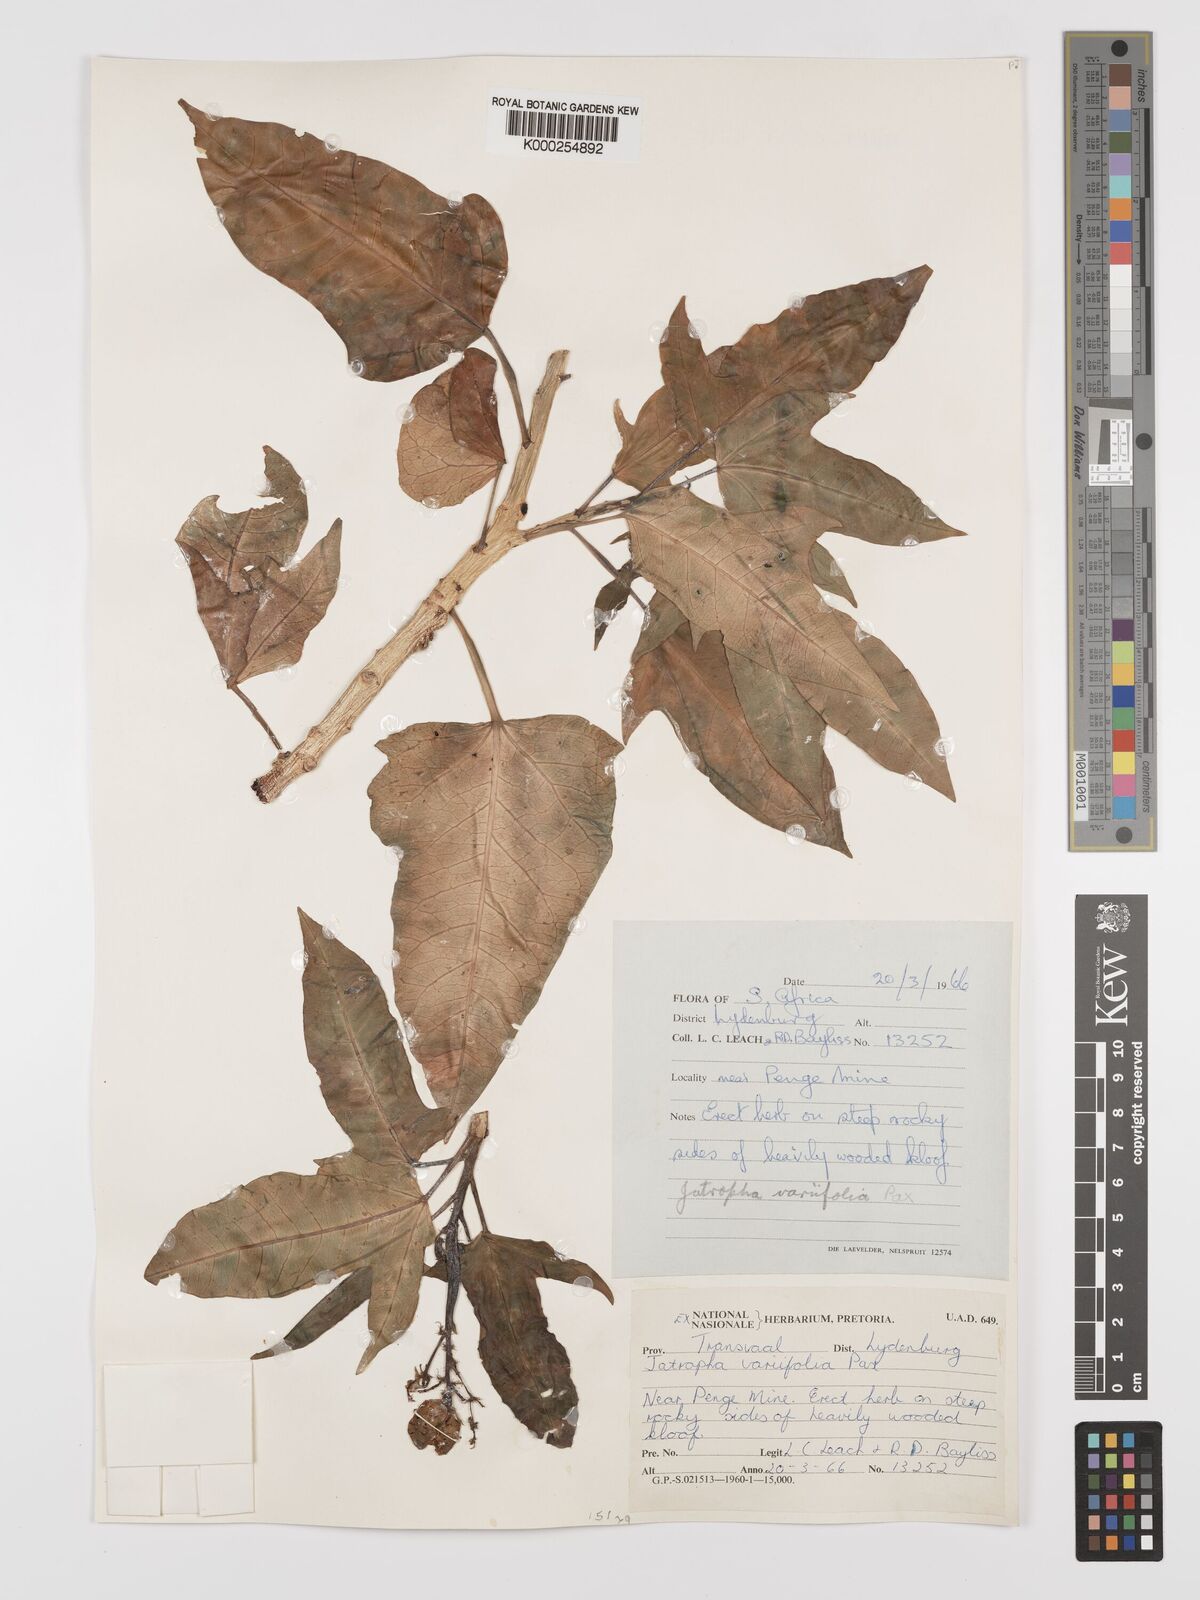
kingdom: Plantae
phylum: Tracheophyta
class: Magnoliopsida
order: Malpighiales
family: Euphorbiaceae
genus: Jatropha
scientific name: Jatropha variifolia
